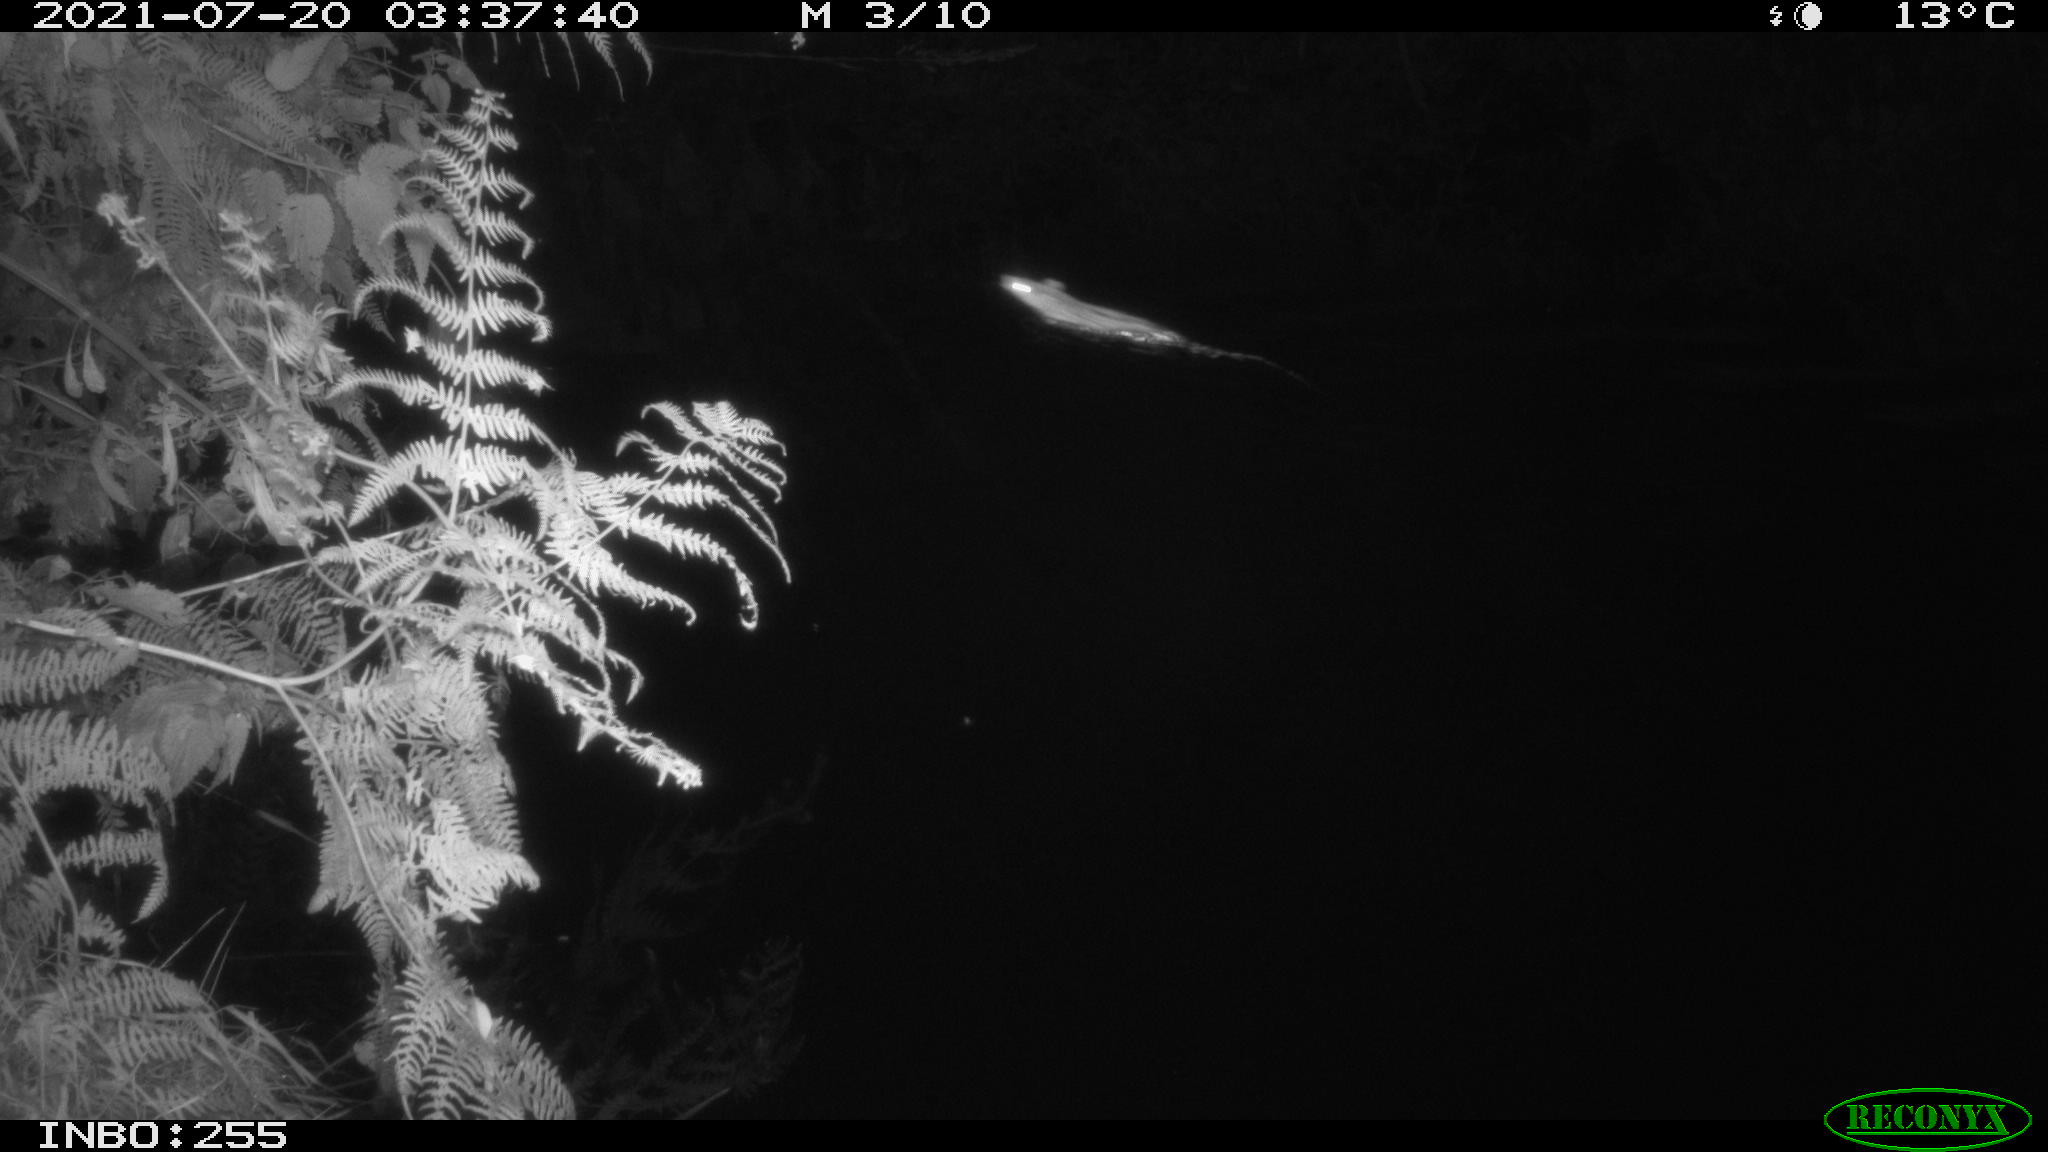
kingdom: Animalia
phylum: Chordata
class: Mammalia
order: Rodentia
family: Muridae
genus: Rattus
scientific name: Rattus norvegicus
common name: Brown rat
